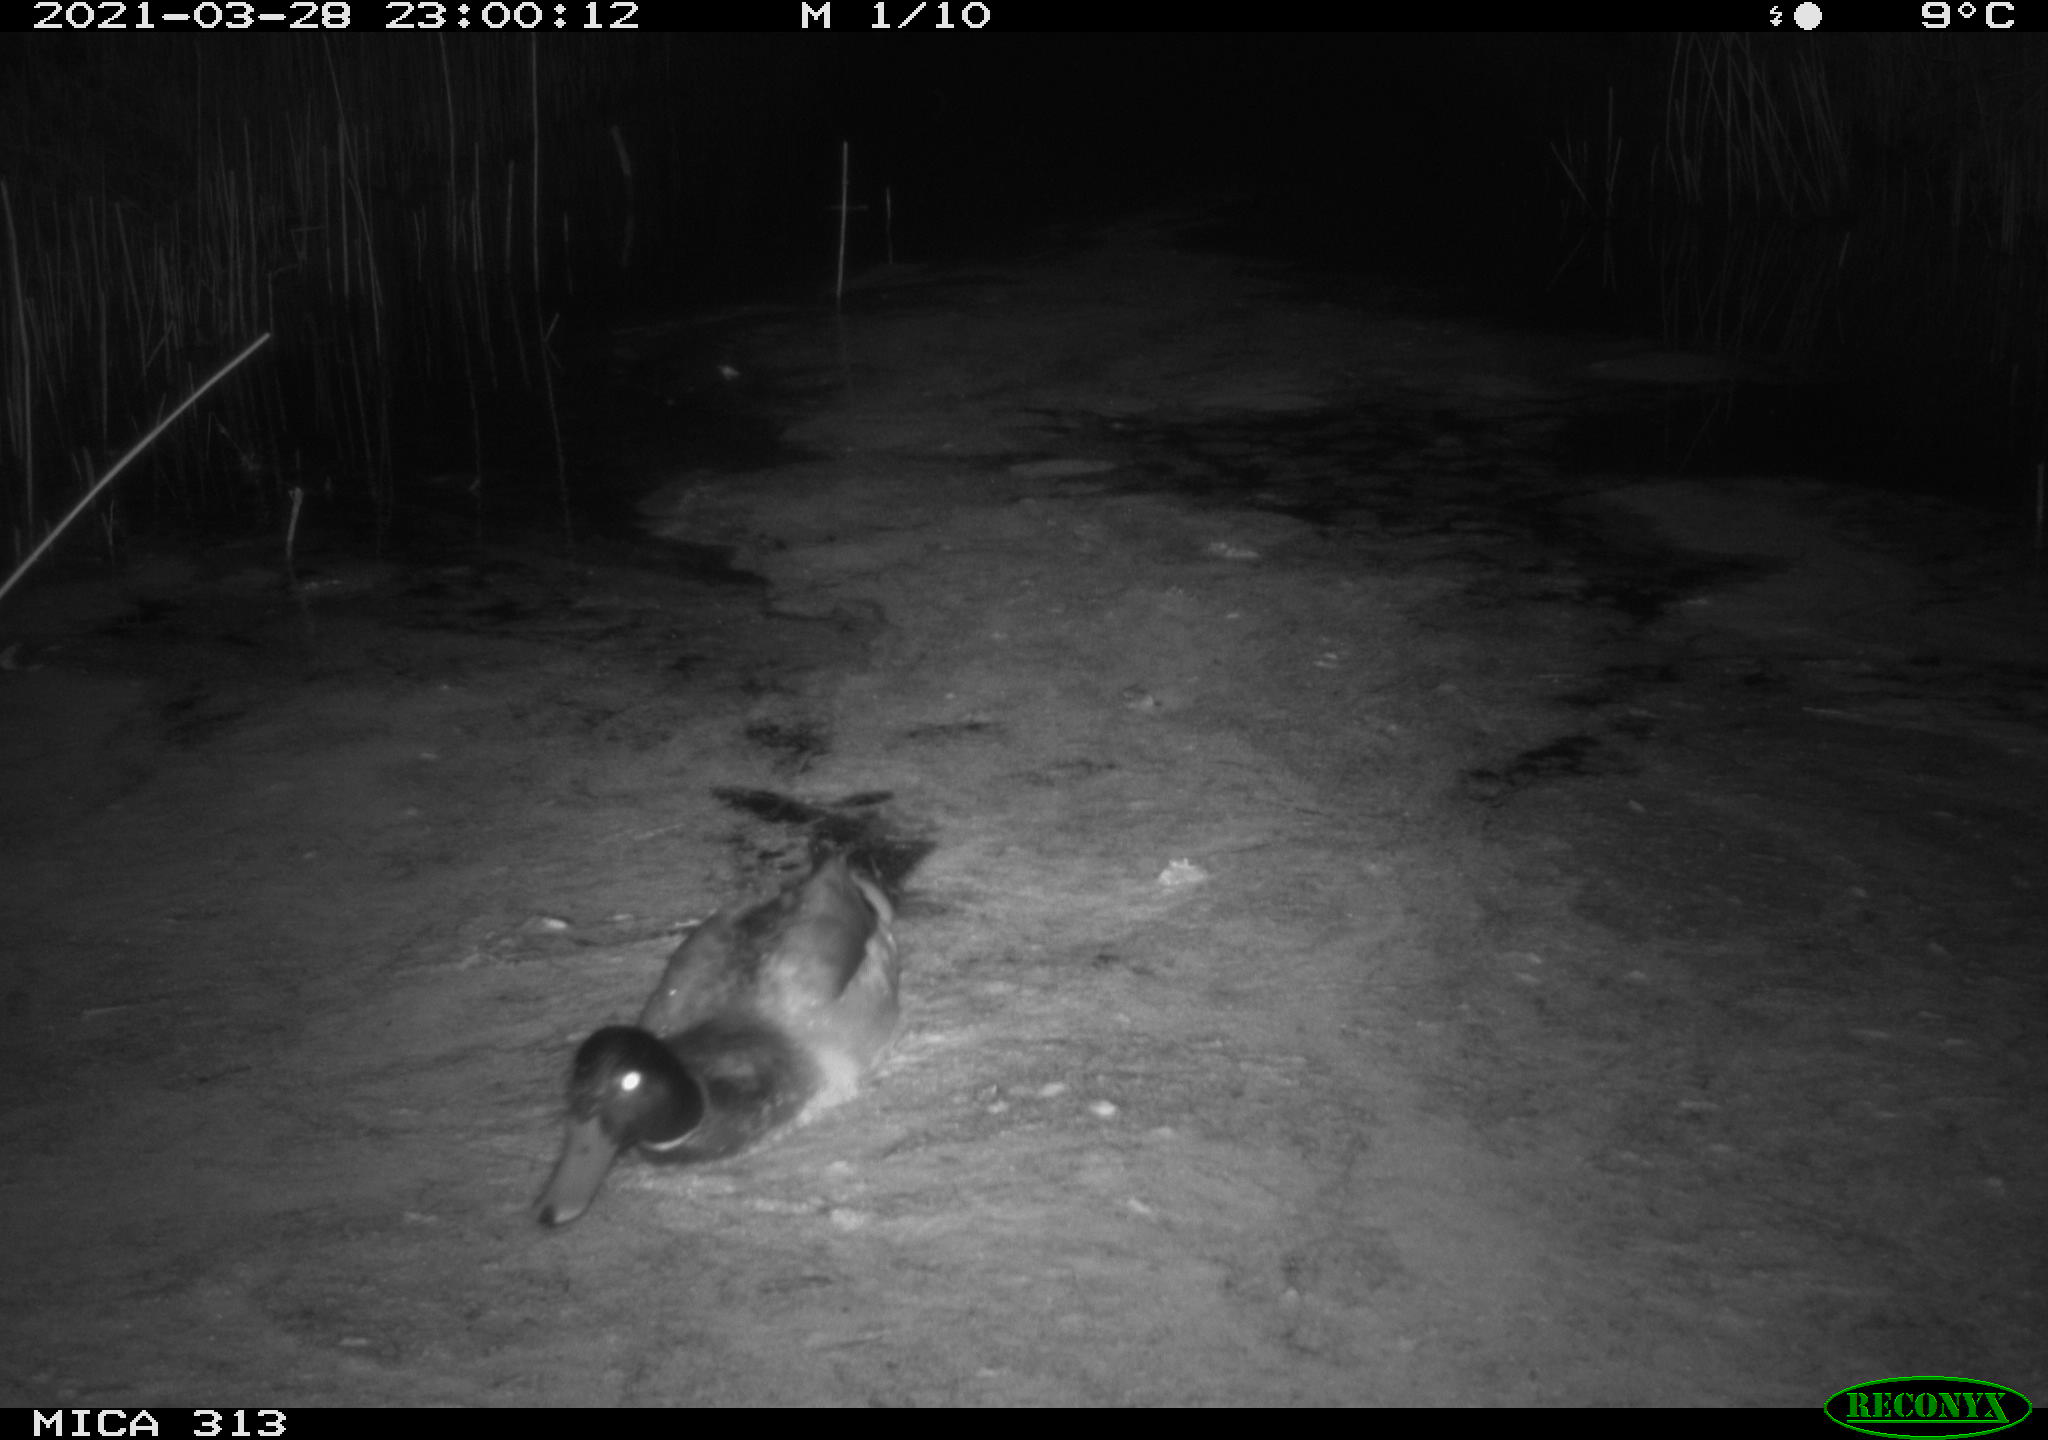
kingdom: Animalia
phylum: Chordata
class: Aves
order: Gruiformes
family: Rallidae
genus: Fulica
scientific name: Fulica atra
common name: Eurasian coot
